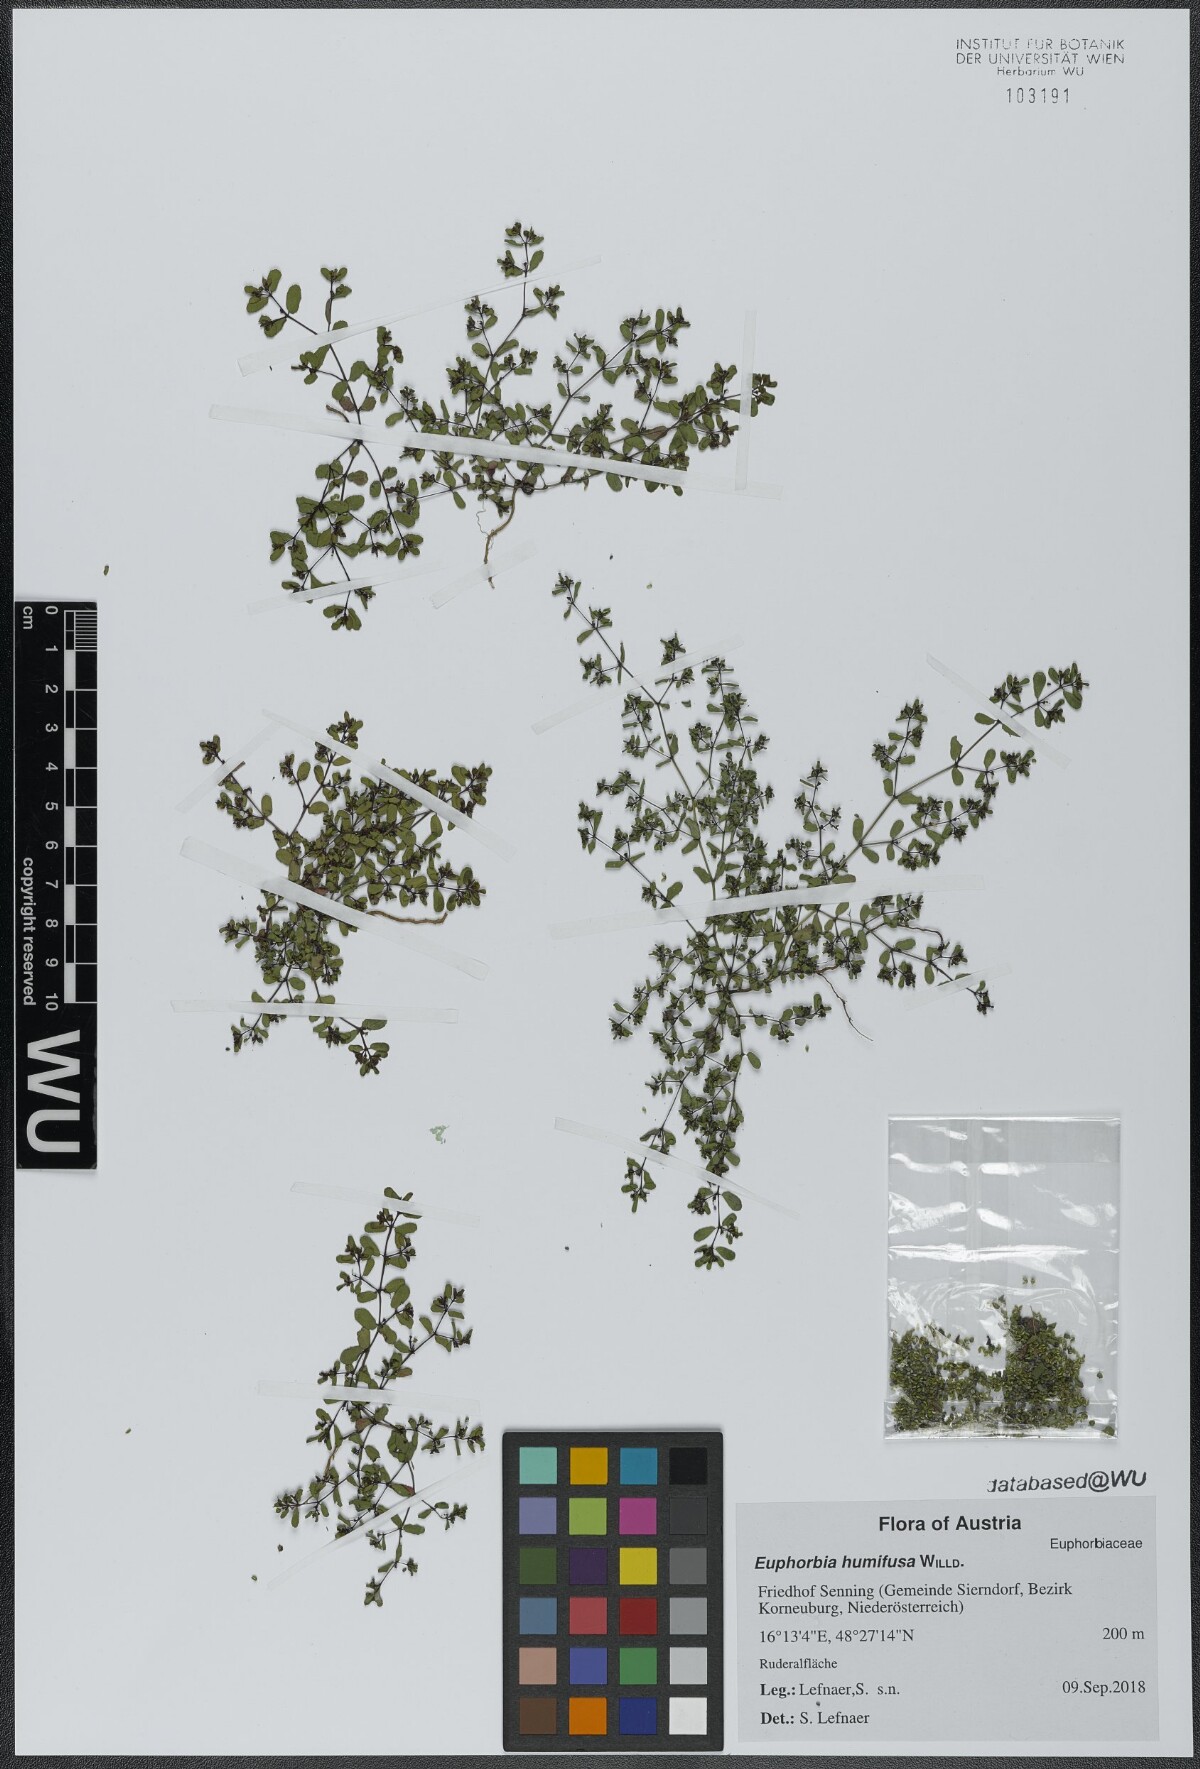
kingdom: Plantae
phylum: Tracheophyta
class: Magnoliopsida
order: Malpighiales
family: Euphorbiaceae
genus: Euphorbia
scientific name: Euphorbia humifusa
